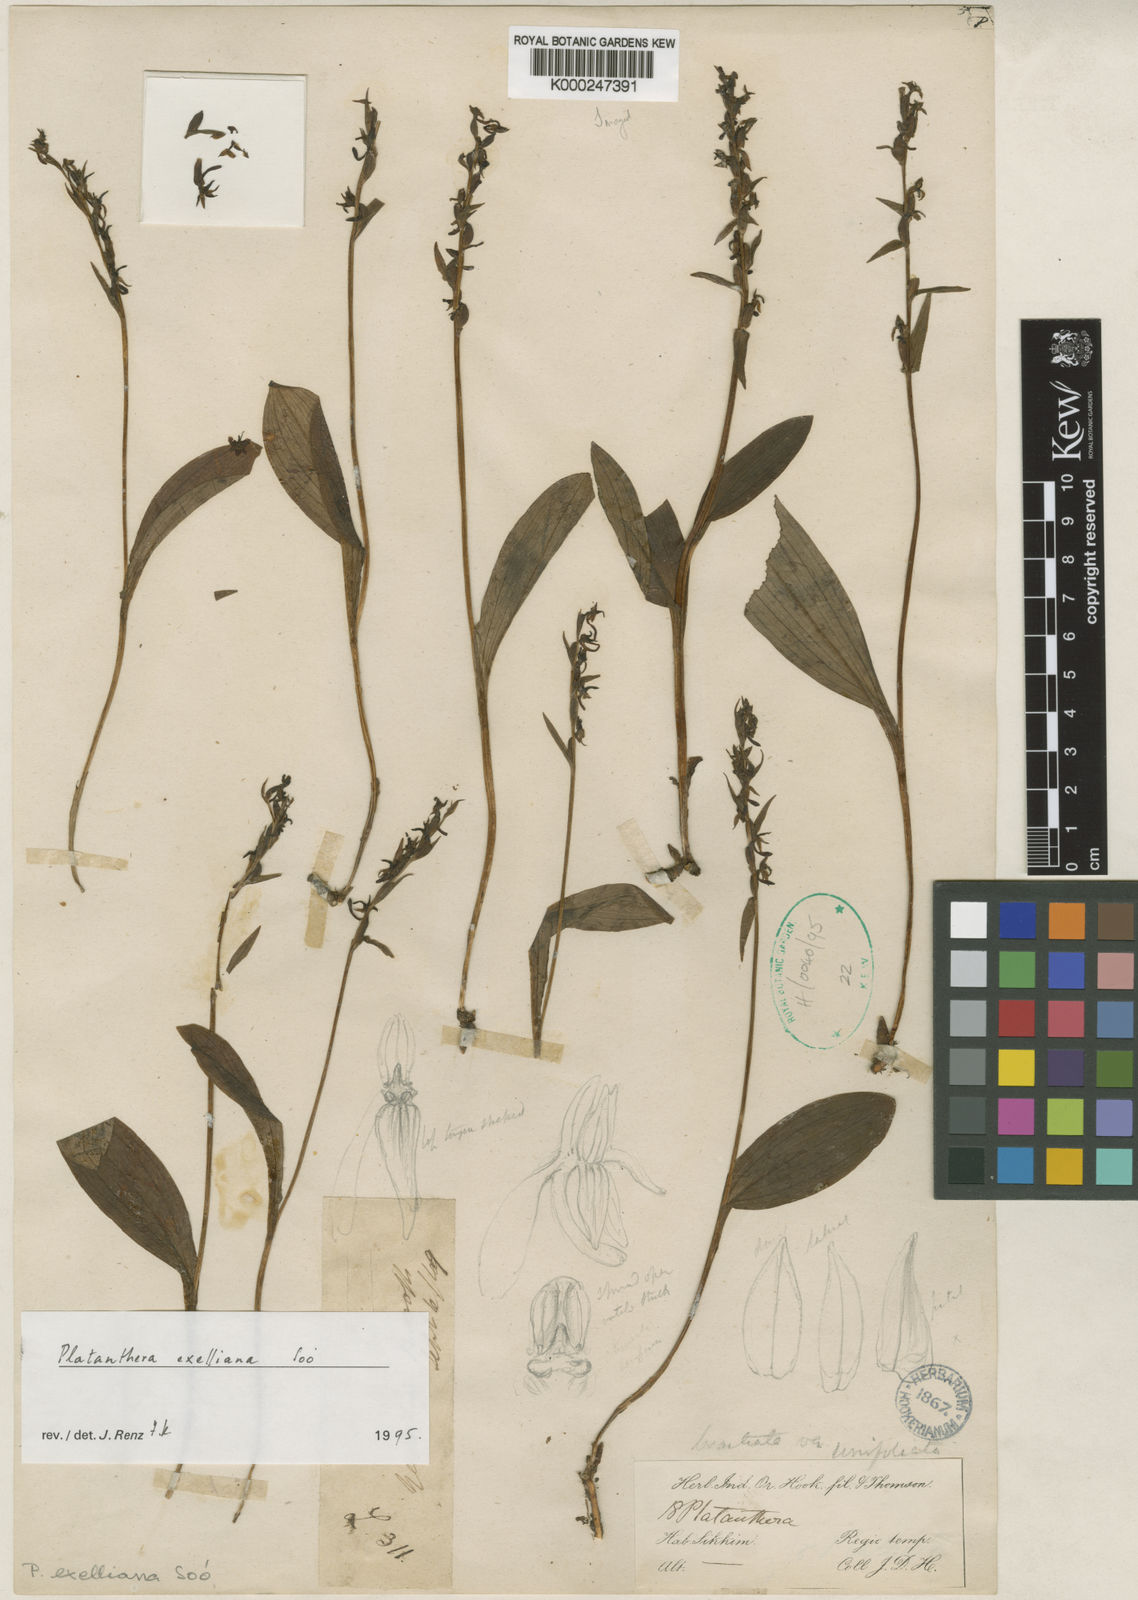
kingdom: Plantae
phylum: Tracheophyta
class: Liliopsida
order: Asparagales
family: Orchidaceae
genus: Platanthera
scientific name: Platanthera
